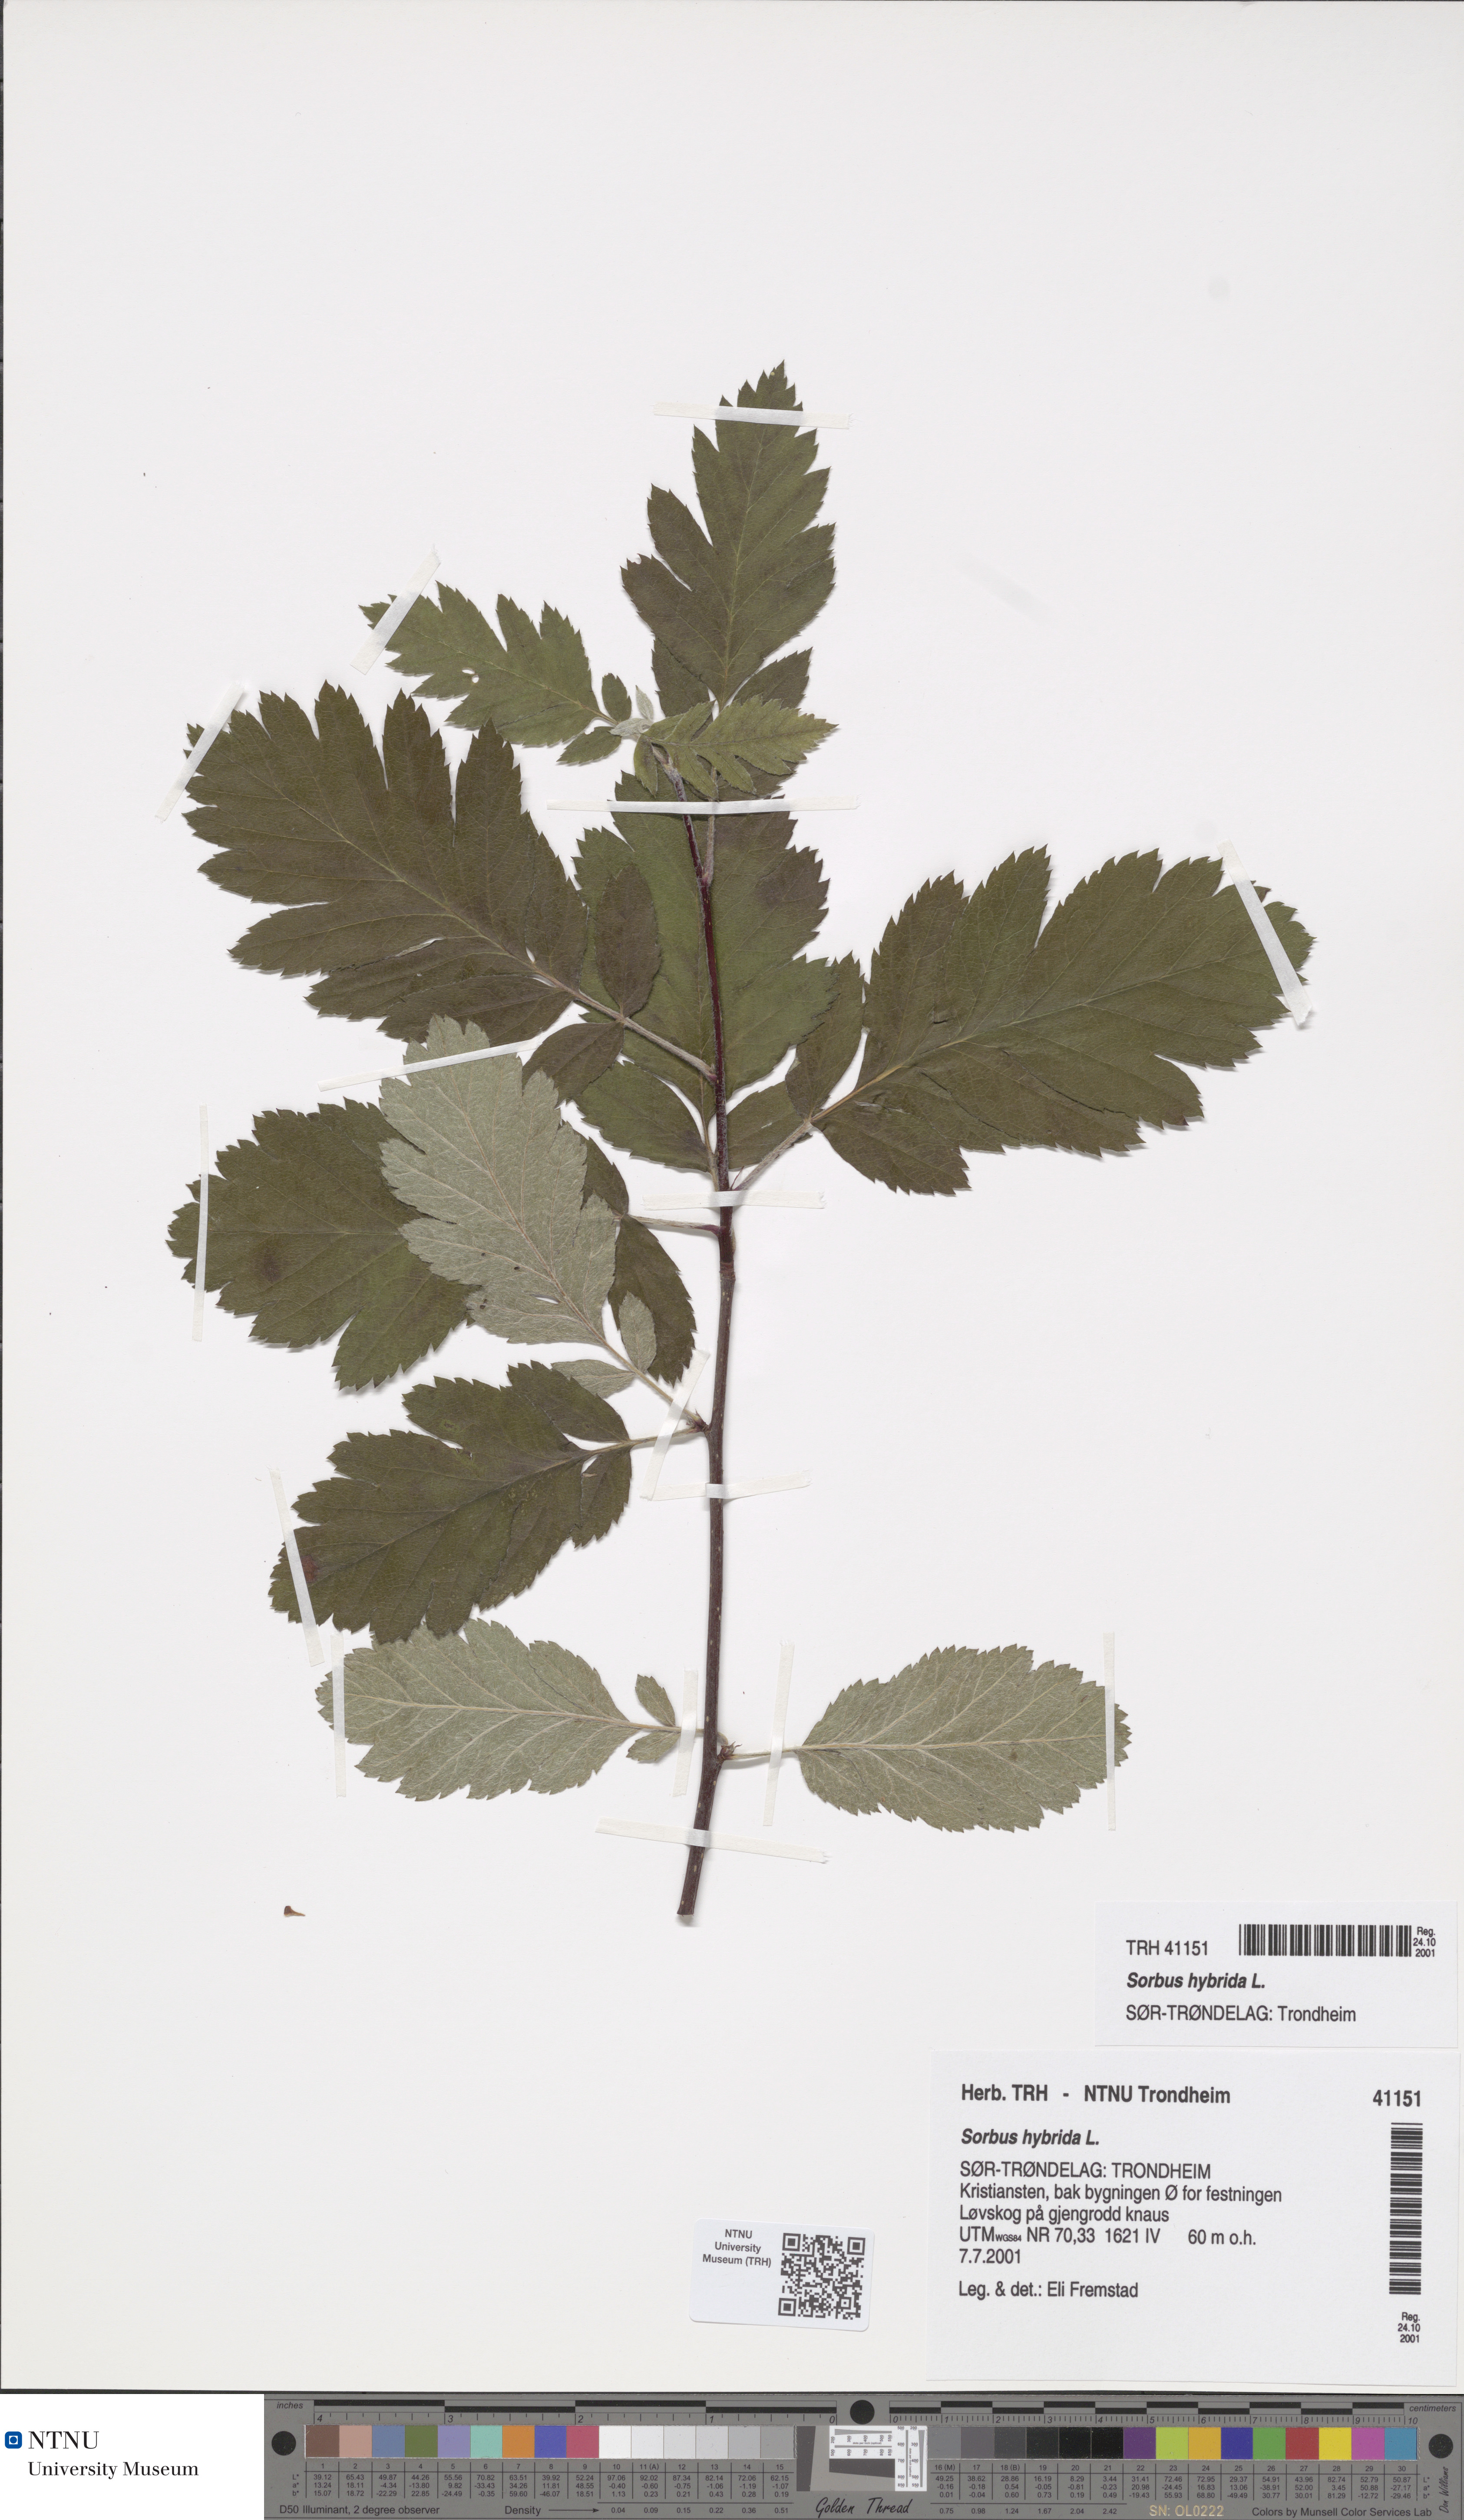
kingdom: Plantae
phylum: Tracheophyta
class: Magnoliopsida
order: Rosales
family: Rosaceae
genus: Hedlundia
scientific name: Hedlundia hybrida
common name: Swedish service-tree
